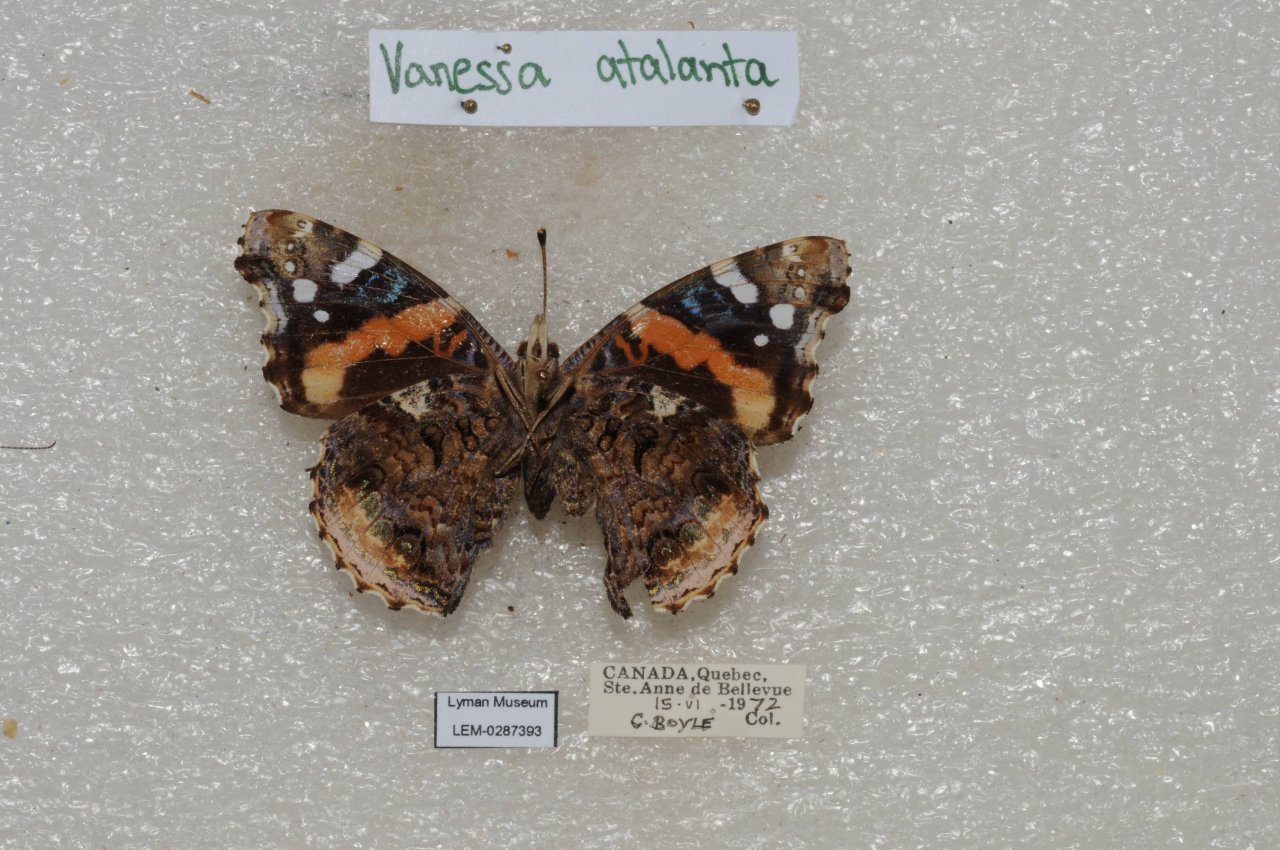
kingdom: Animalia
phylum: Arthropoda
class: Insecta
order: Lepidoptera
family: Nymphalidae
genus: Vanessa
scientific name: Vanessa atalanta
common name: Red Admiral
